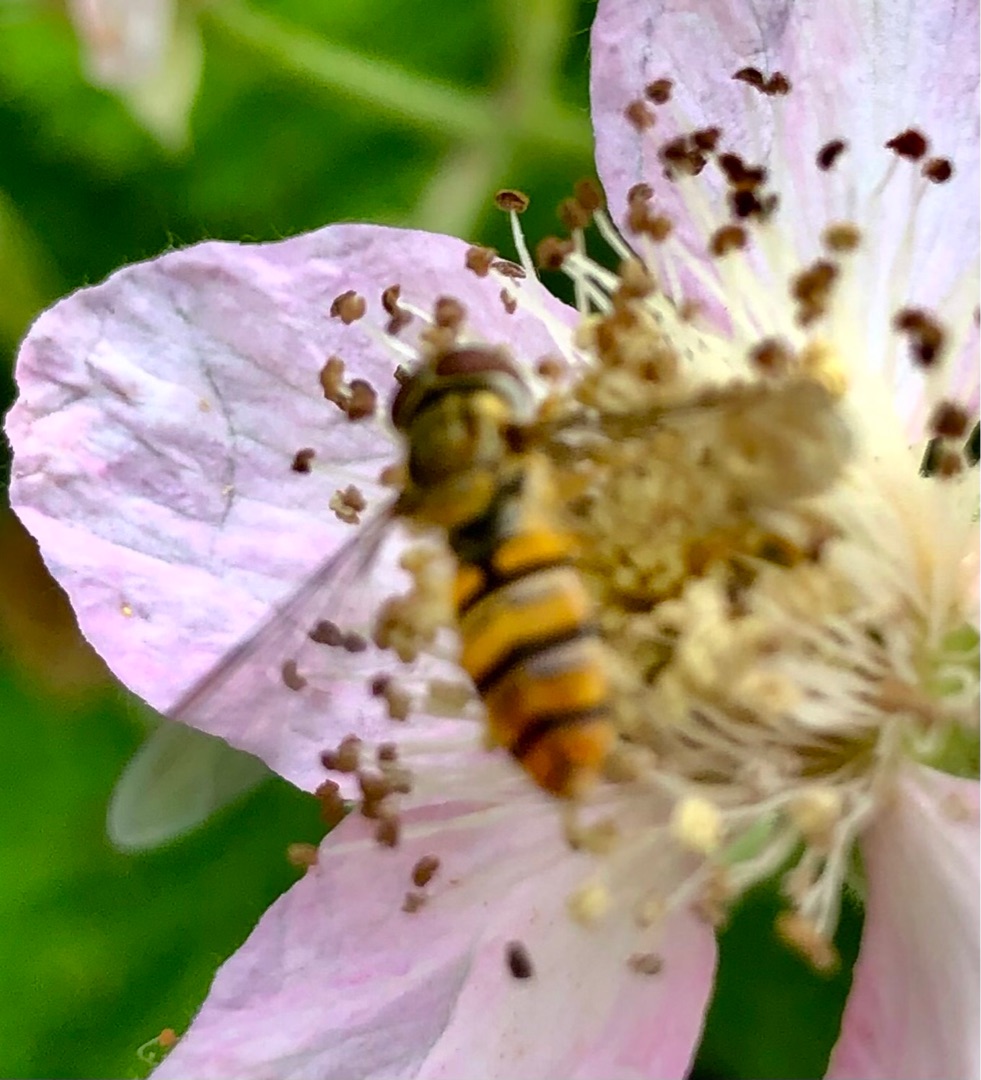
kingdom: Animalia
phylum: Arthropoda
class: Insecta
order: Diptera
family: Syrphidae
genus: Episyrphus
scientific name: Episyrphus balteatus
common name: Dobbeltbåndet svirreflue
